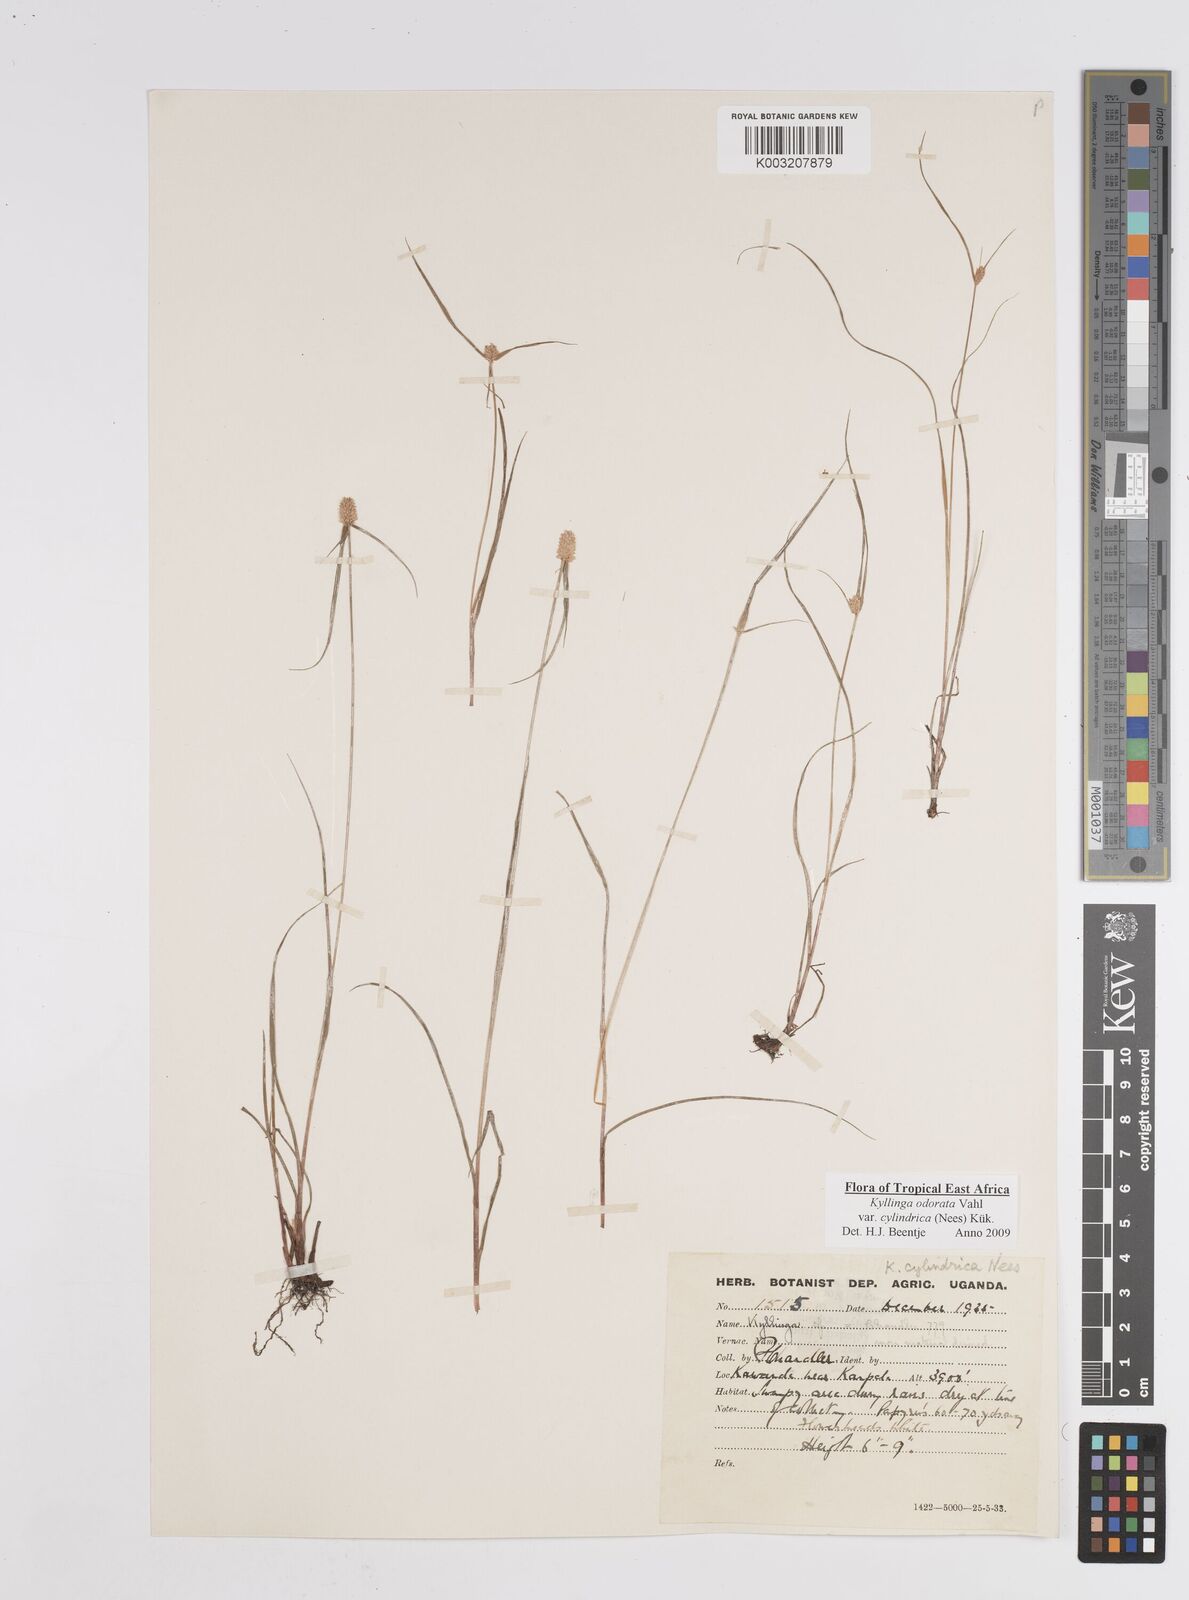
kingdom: Plantae
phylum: Tracheophyta
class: Liliopsida
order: Poales
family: Cyperaceae
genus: Cyperus
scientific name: Cyperus
